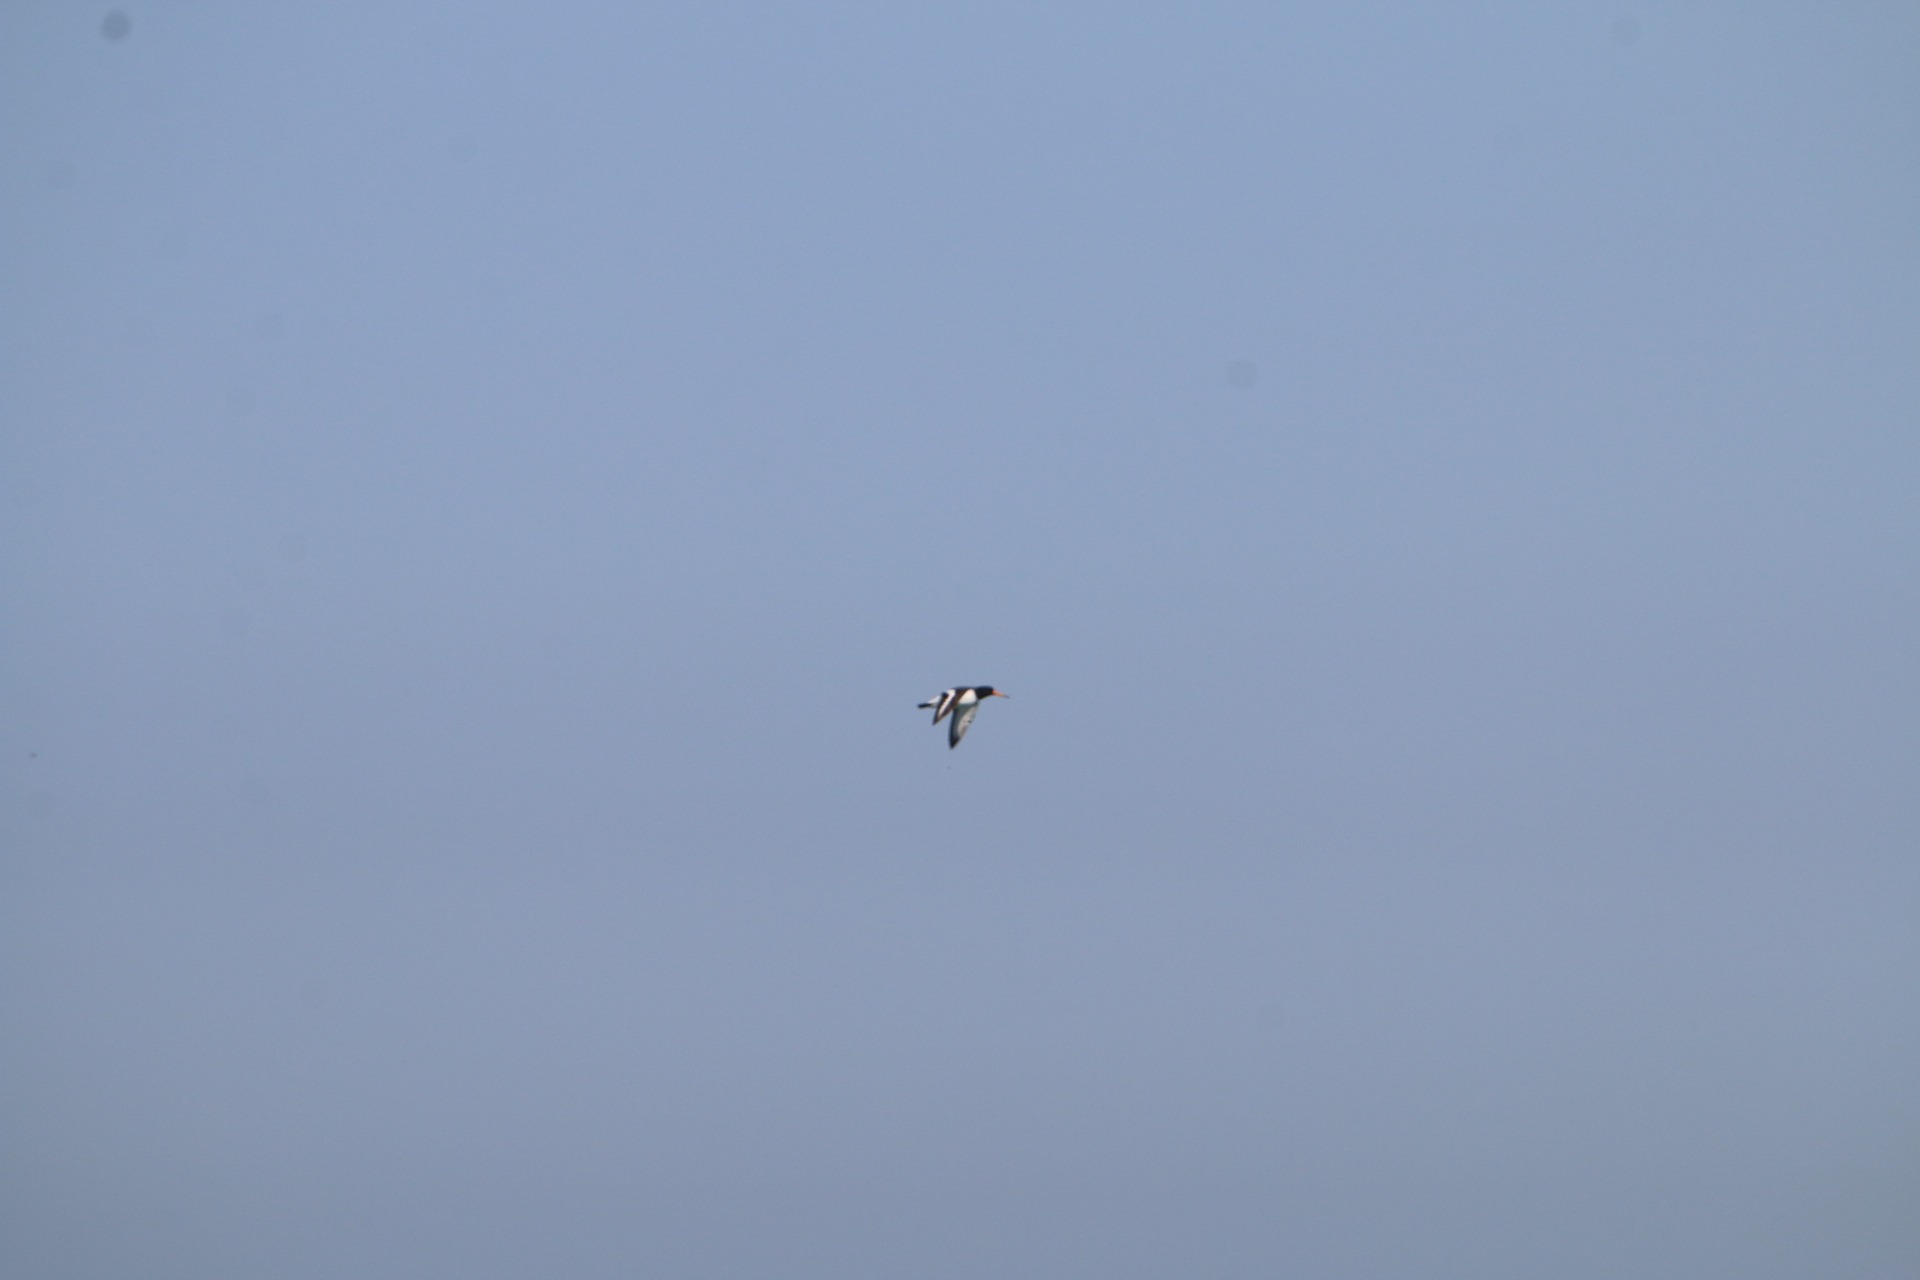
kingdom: Animalia
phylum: Chordata
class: Aves
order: Charadriiformes
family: Haematopodidae
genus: Haematopus
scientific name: Haematopus ostralegus
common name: Strandskade
